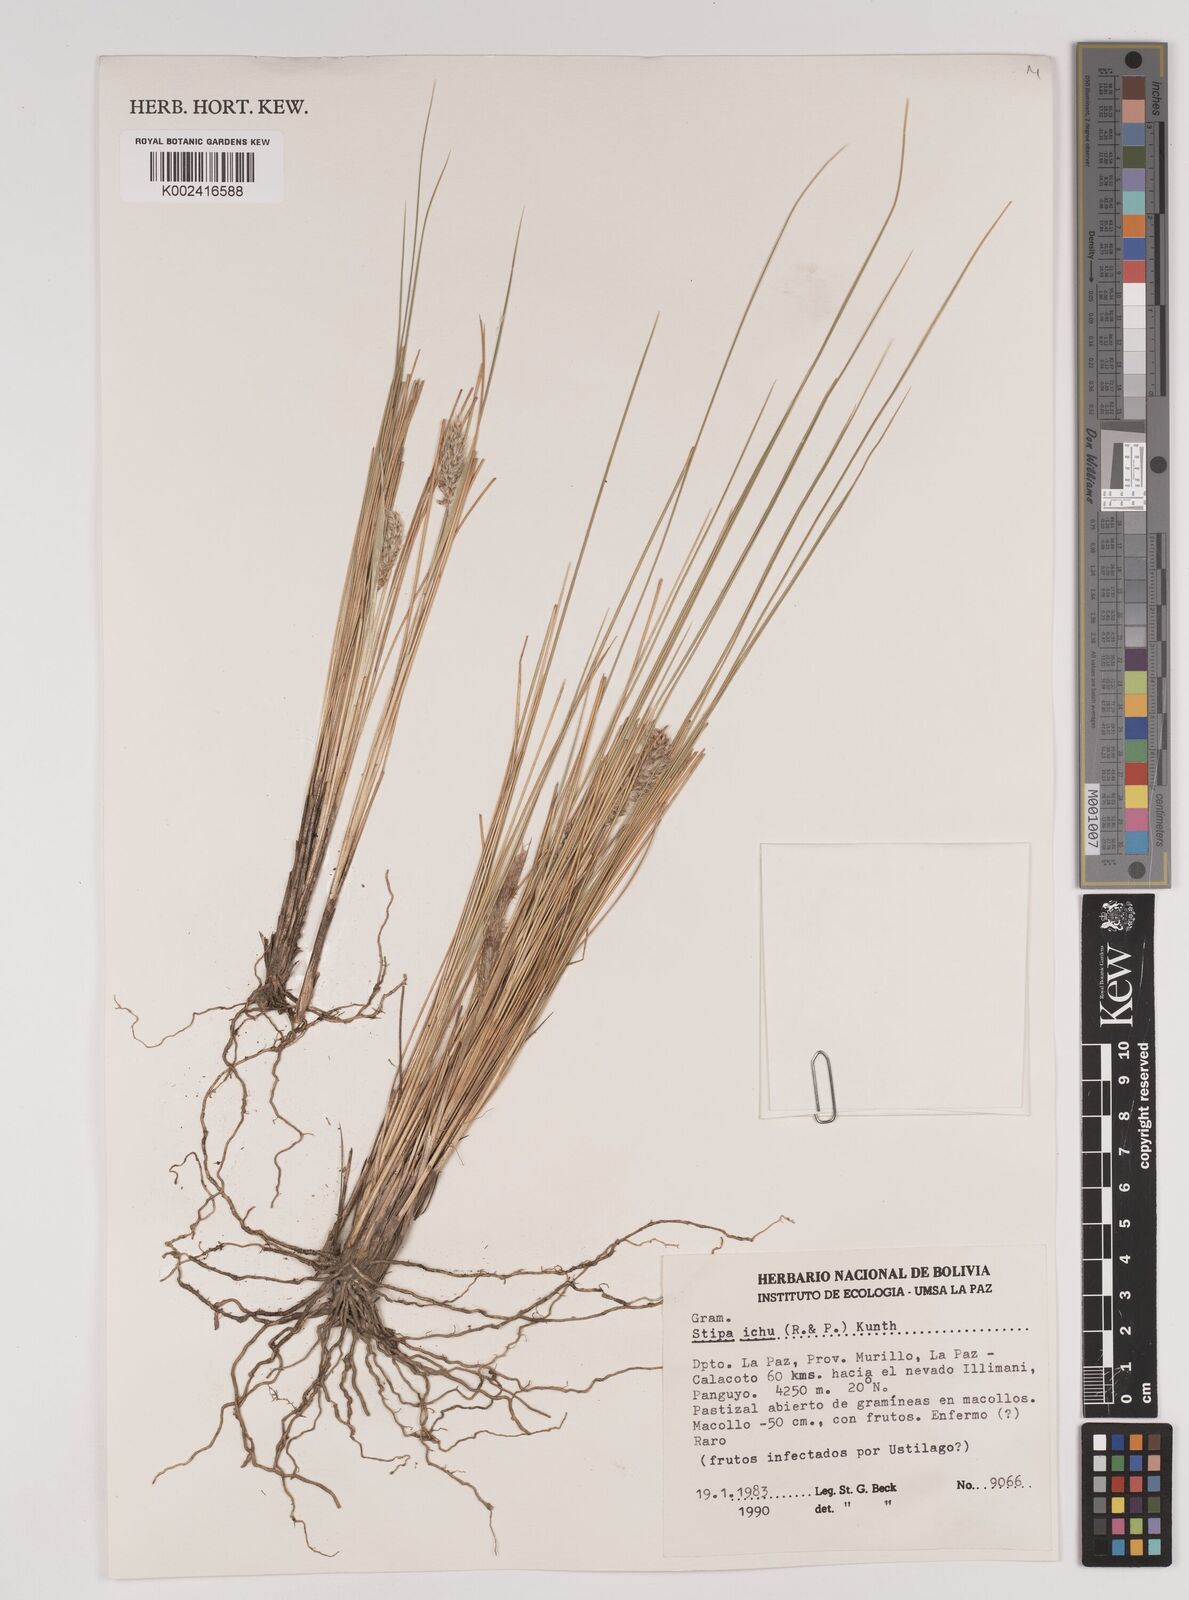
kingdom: Plantae
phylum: Tracheophyta
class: Liliopsida
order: Poales
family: Poaceae
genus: Jarava
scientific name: Jarava leptostachya
